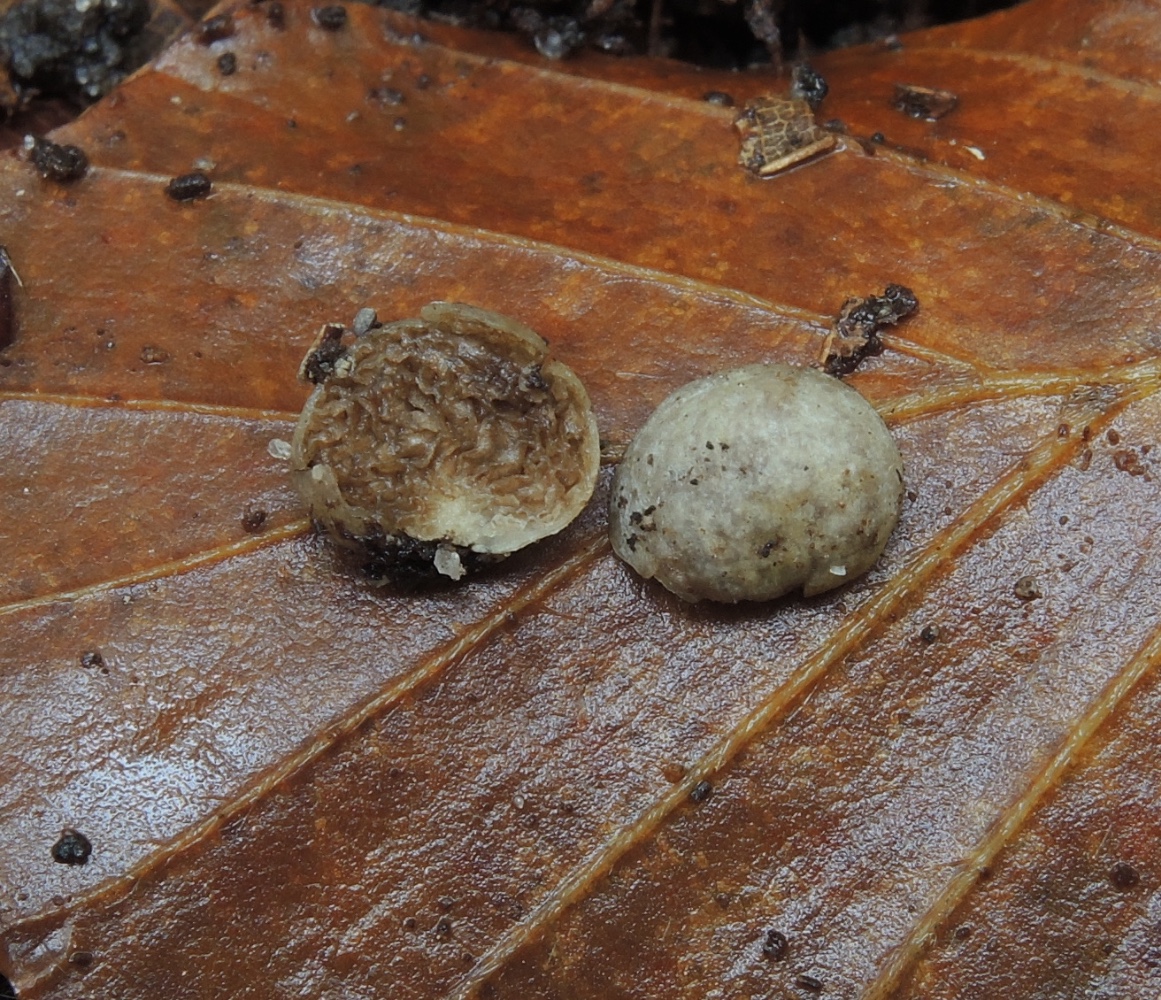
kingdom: Fungi
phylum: Basidiomycota
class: Agaricomycetes
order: Agaricales
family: Hymenogastraceae
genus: Hymenogaster
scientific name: Hymenogaster
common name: knoldtrøffel
